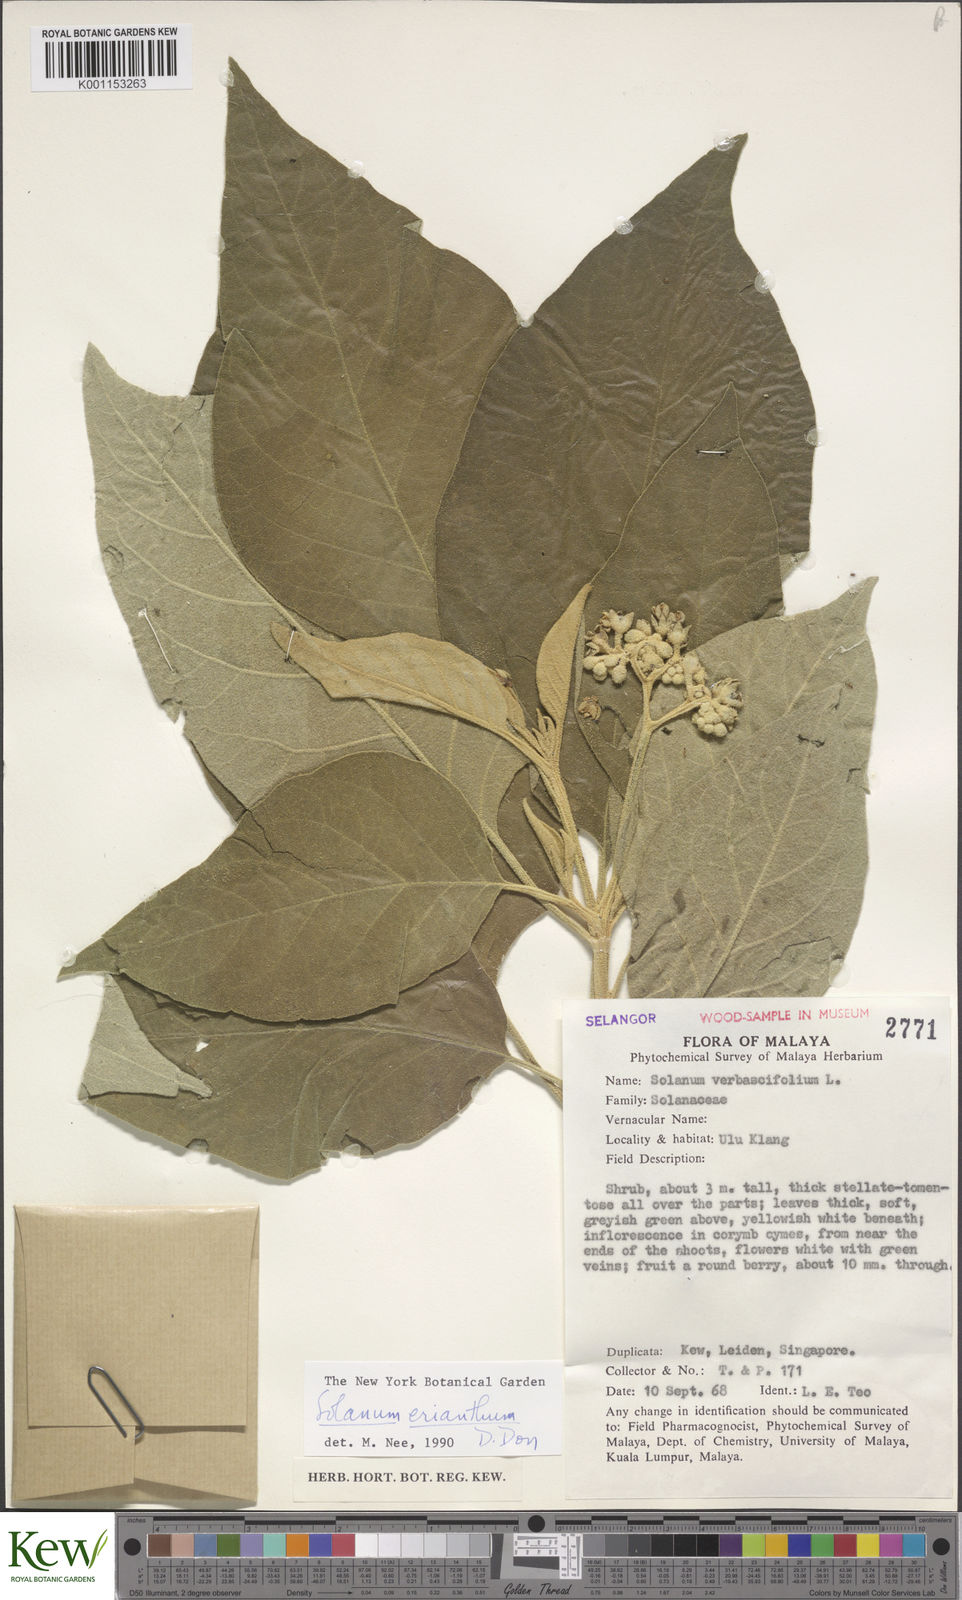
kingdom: Plantae
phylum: Tracheophyta
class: Magnoliopsida
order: Solanales
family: Solanaceae
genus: Solanum
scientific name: Solanum erianthum
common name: Tobacco-tree
